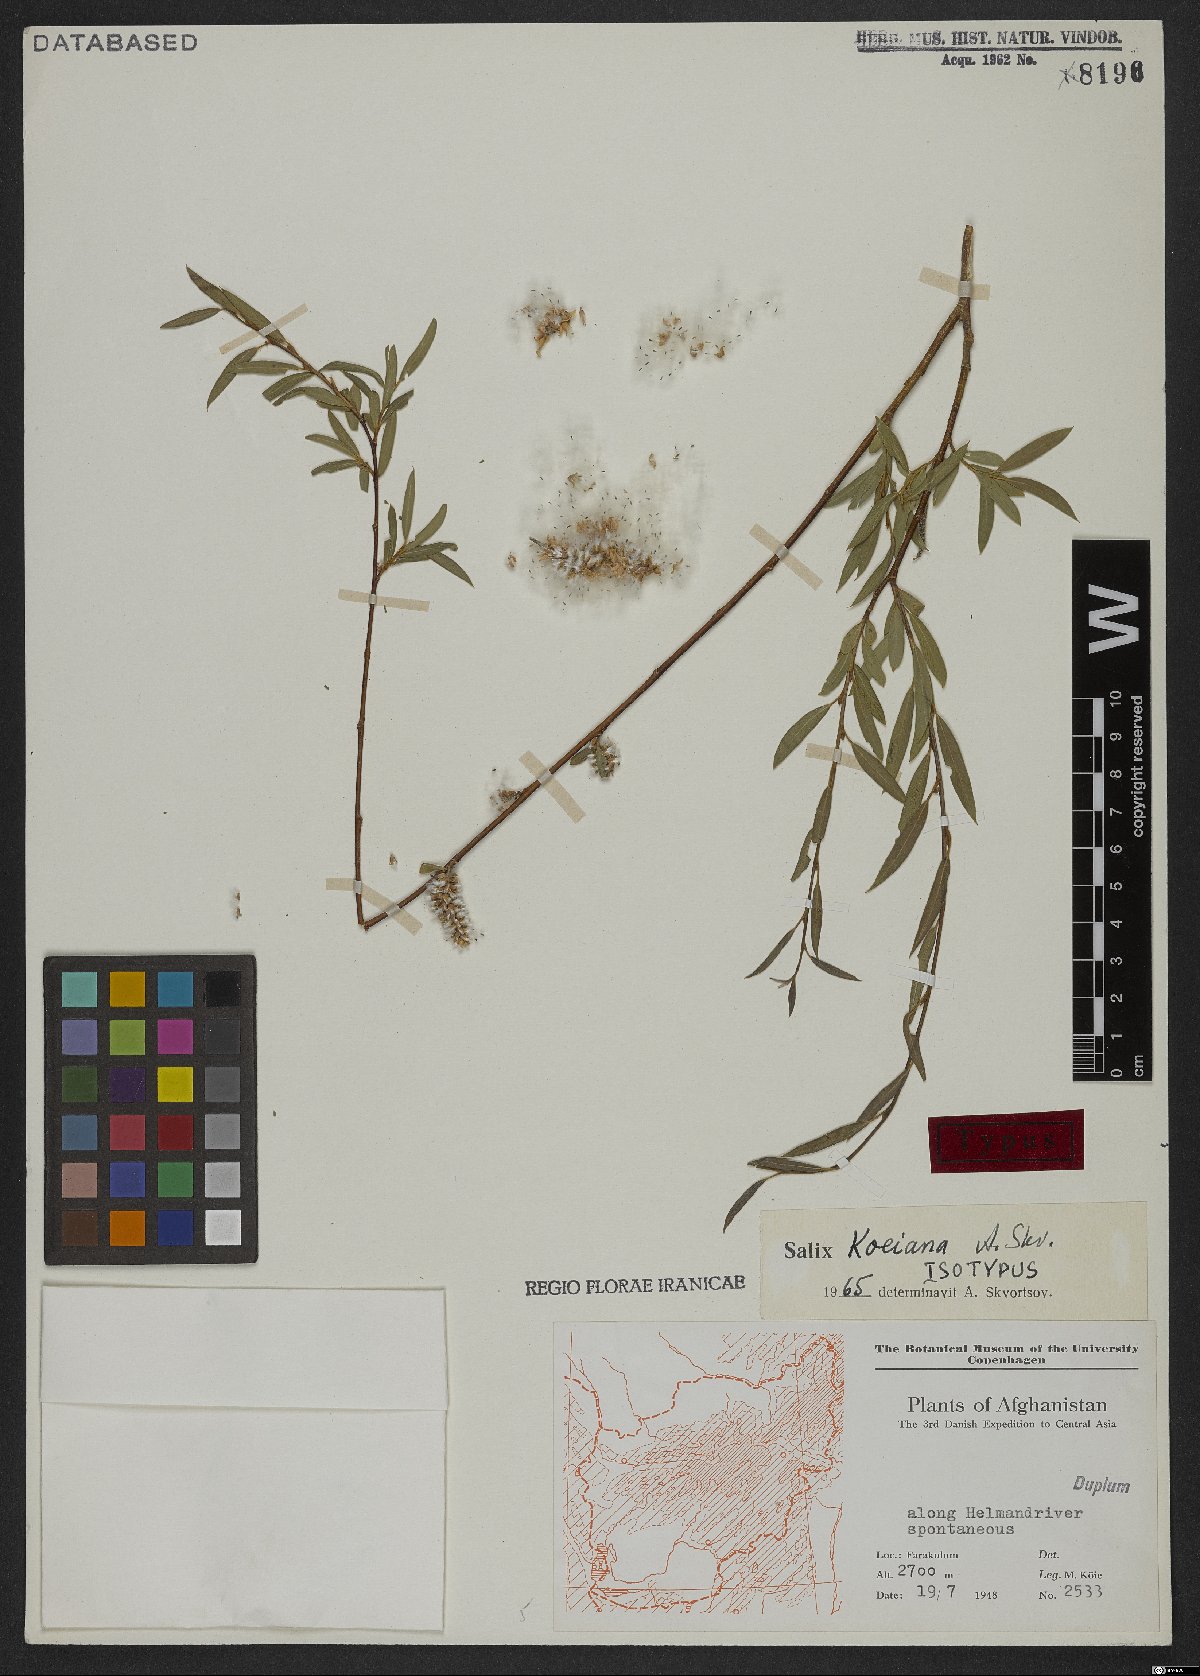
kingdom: Plantae
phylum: Tracheophyta
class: Magnoliopsida
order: Malpighiales
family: Salicaceae
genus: Salix
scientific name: Salix koeieana
